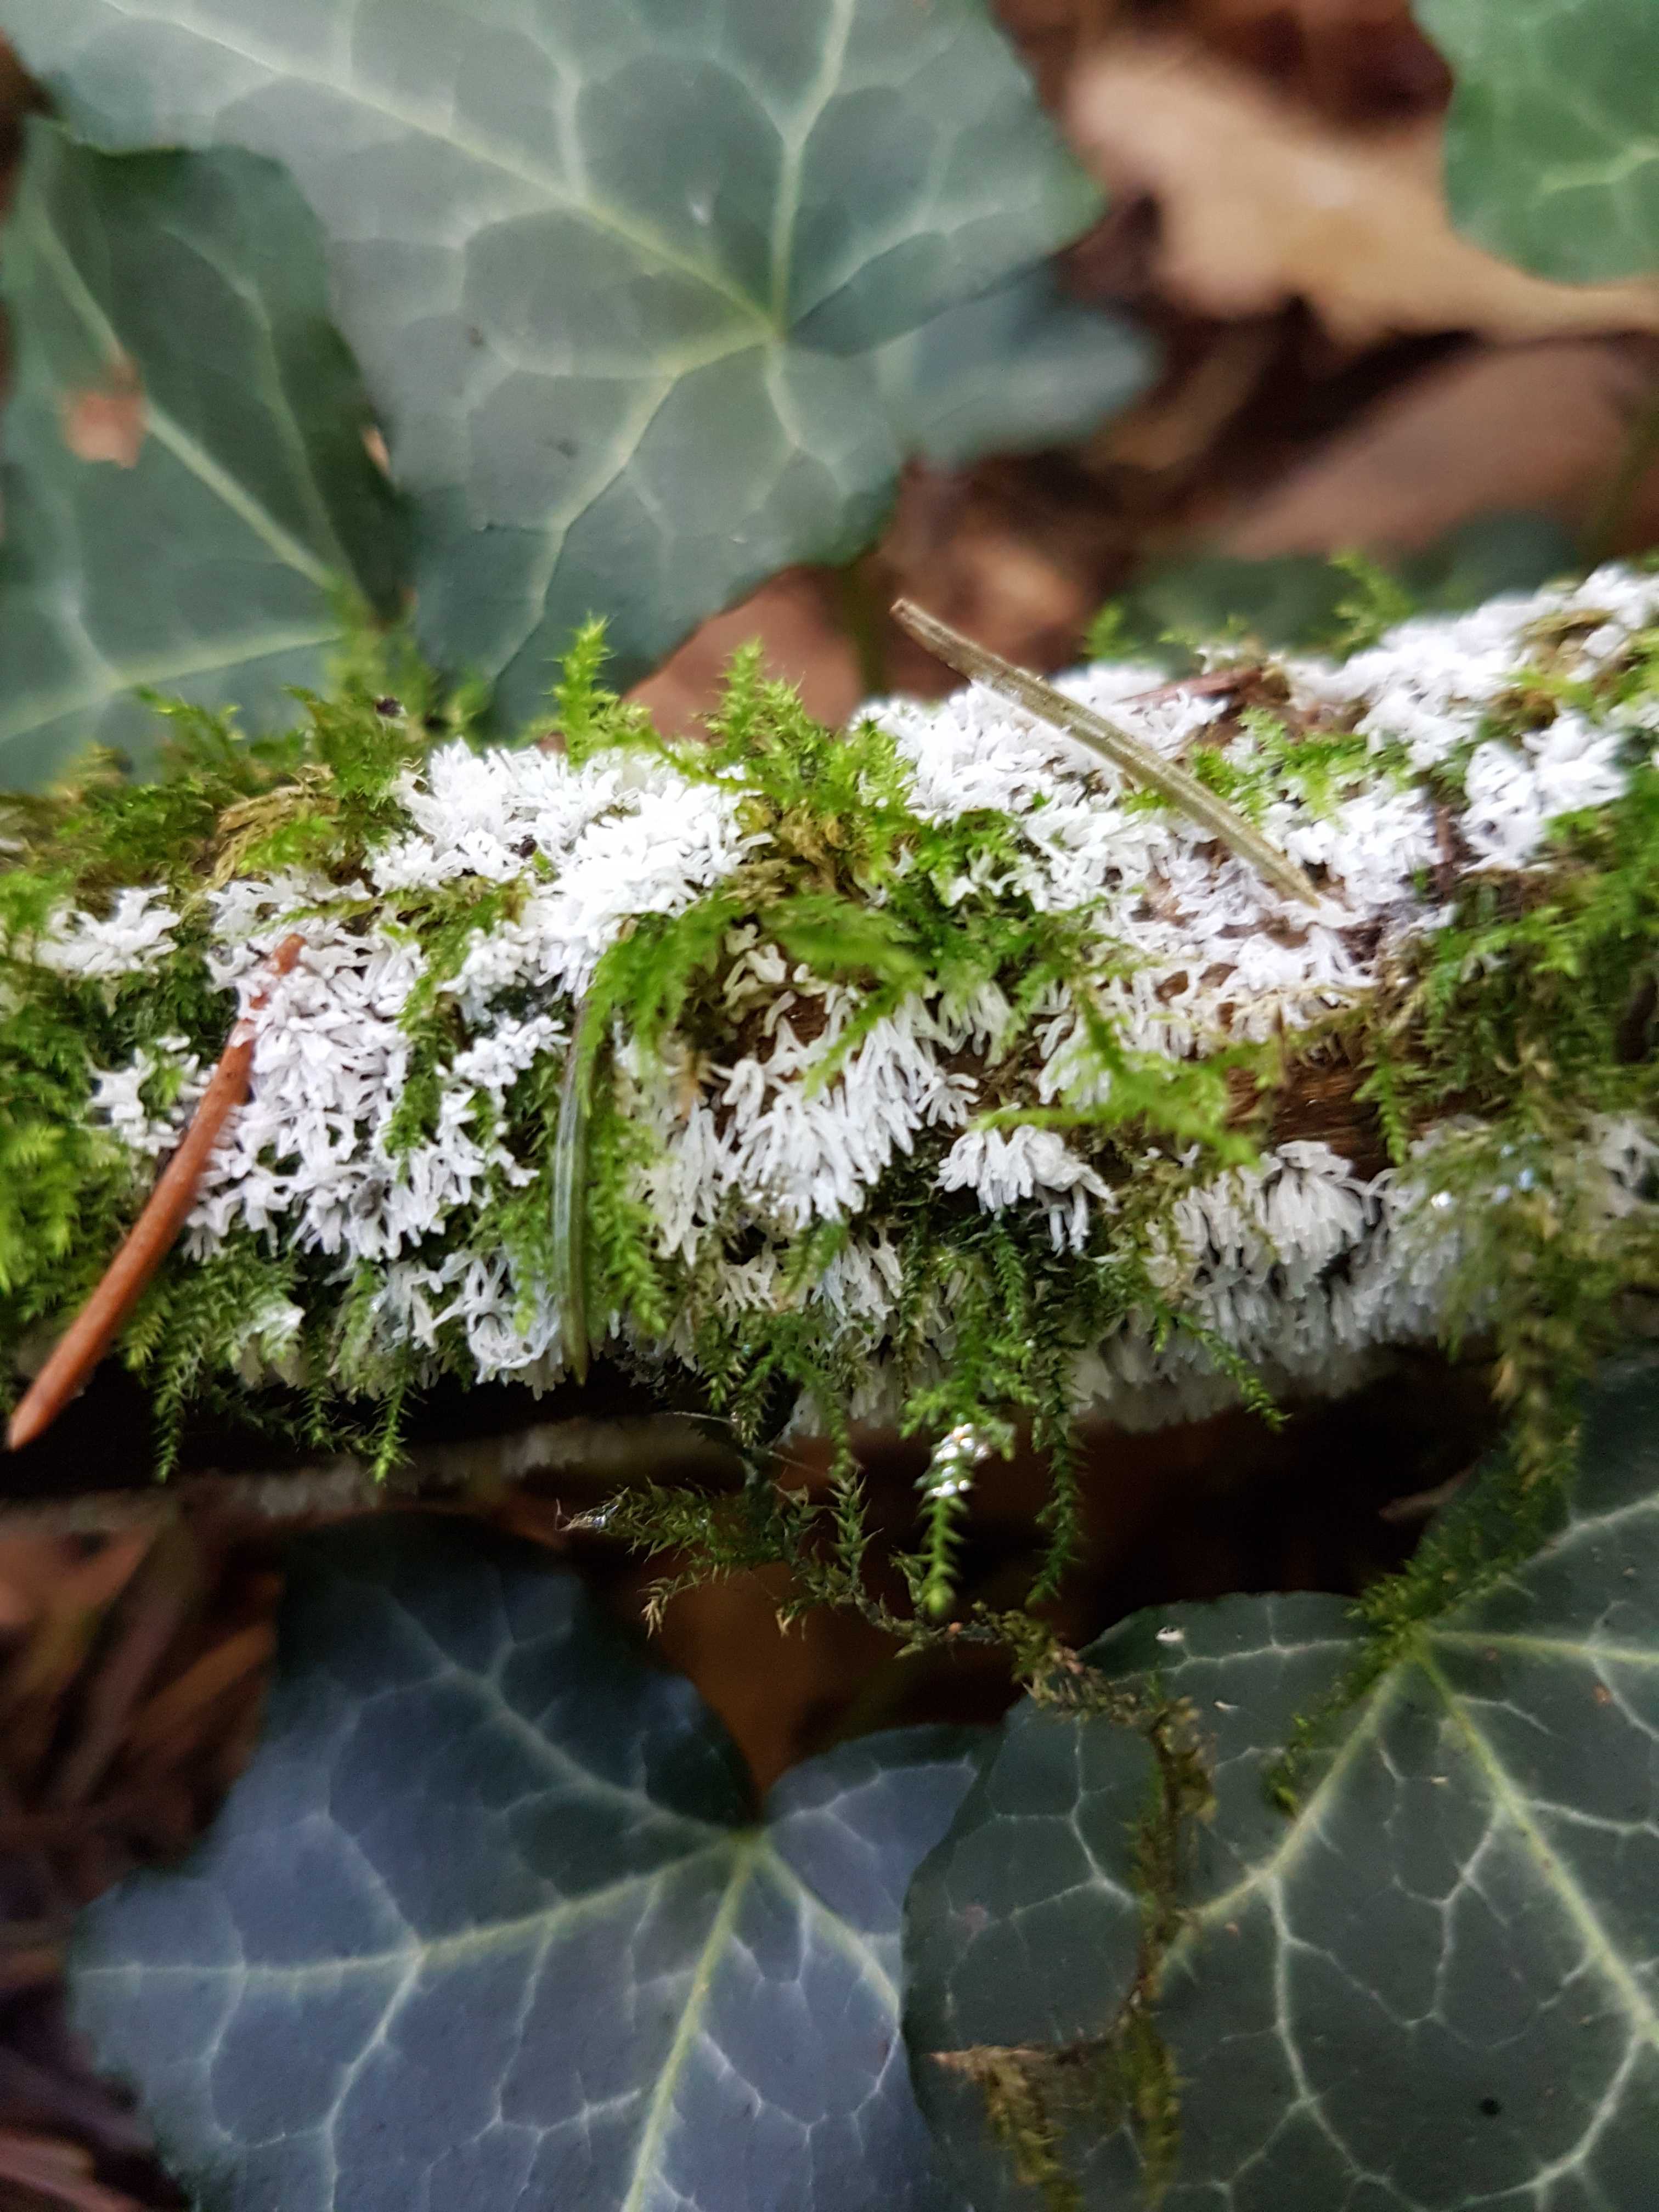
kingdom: Protozoa
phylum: Mycetozoa
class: Protosteliomycetes
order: Ceratiomyxales
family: Ceratiomyxaceae
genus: Ceratiomyxa
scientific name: Ceratiomyxa fruticulosa
